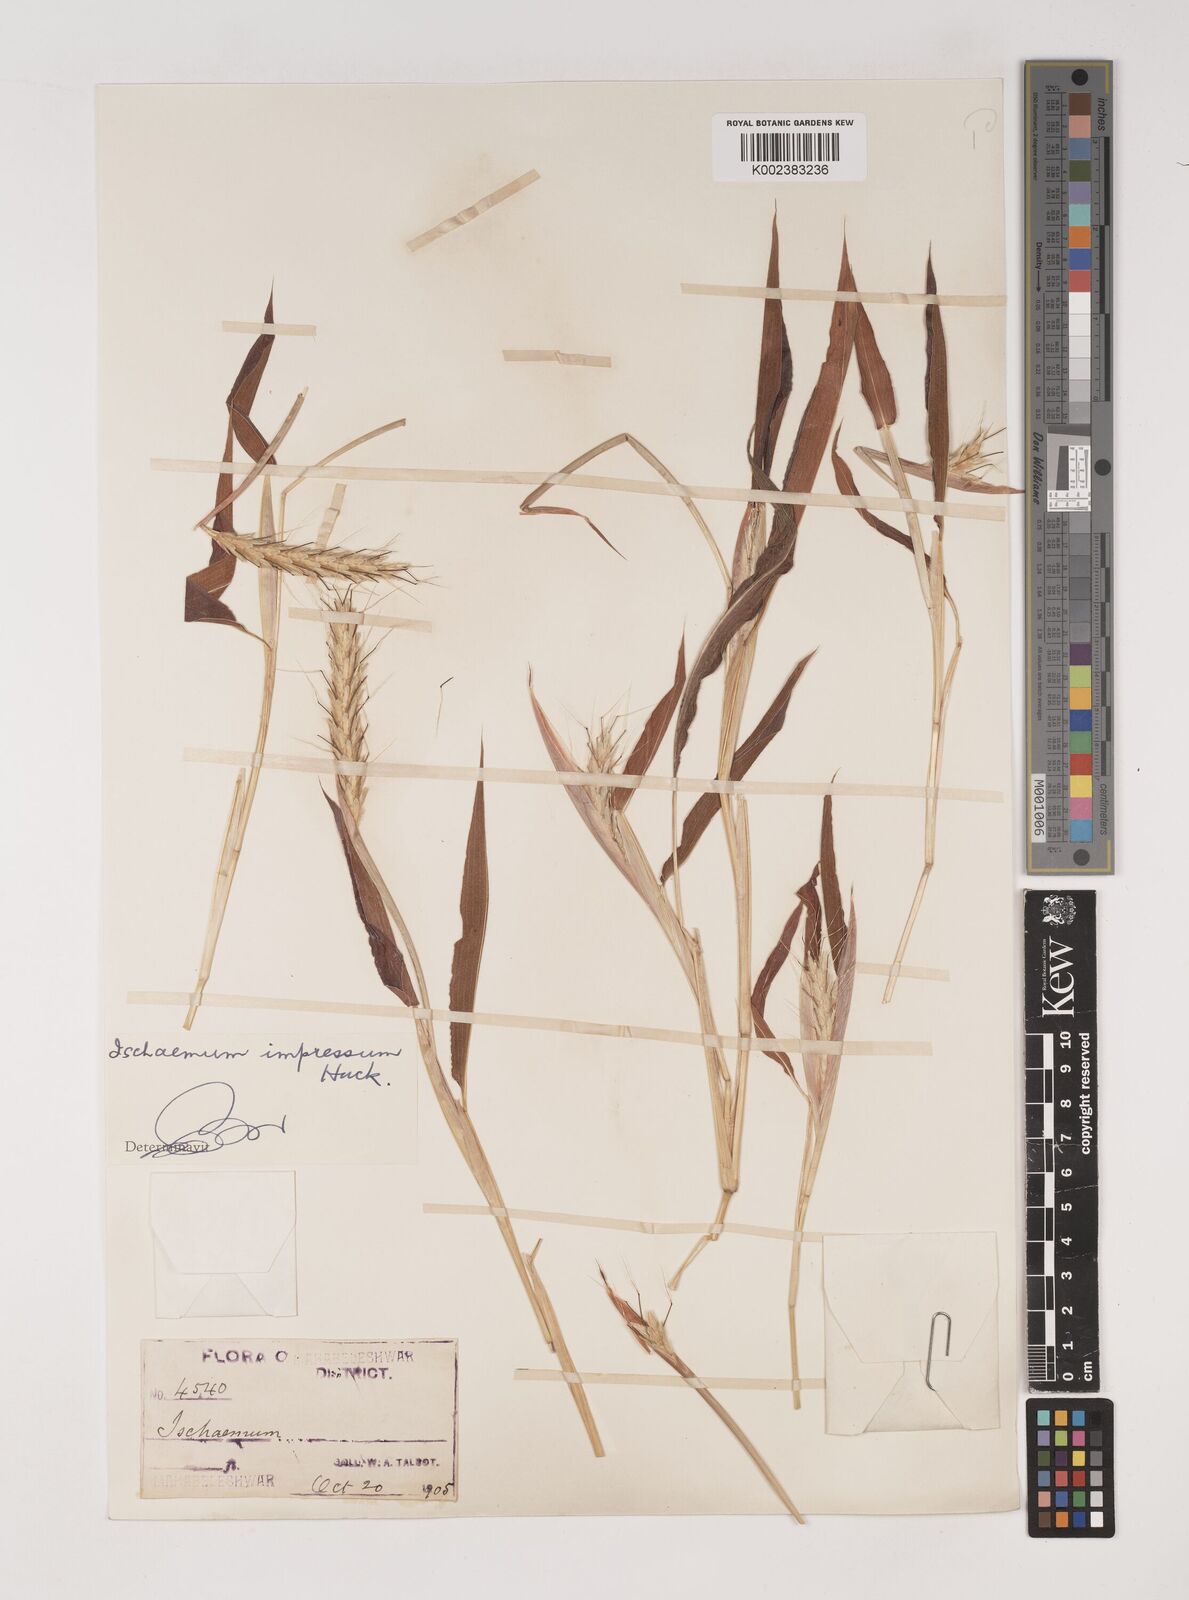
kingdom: Plantae
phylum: Tracheophyta
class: Liliopsida
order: Poales
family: Poaceae
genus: Ischaemum
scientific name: Ischaemum impressum
